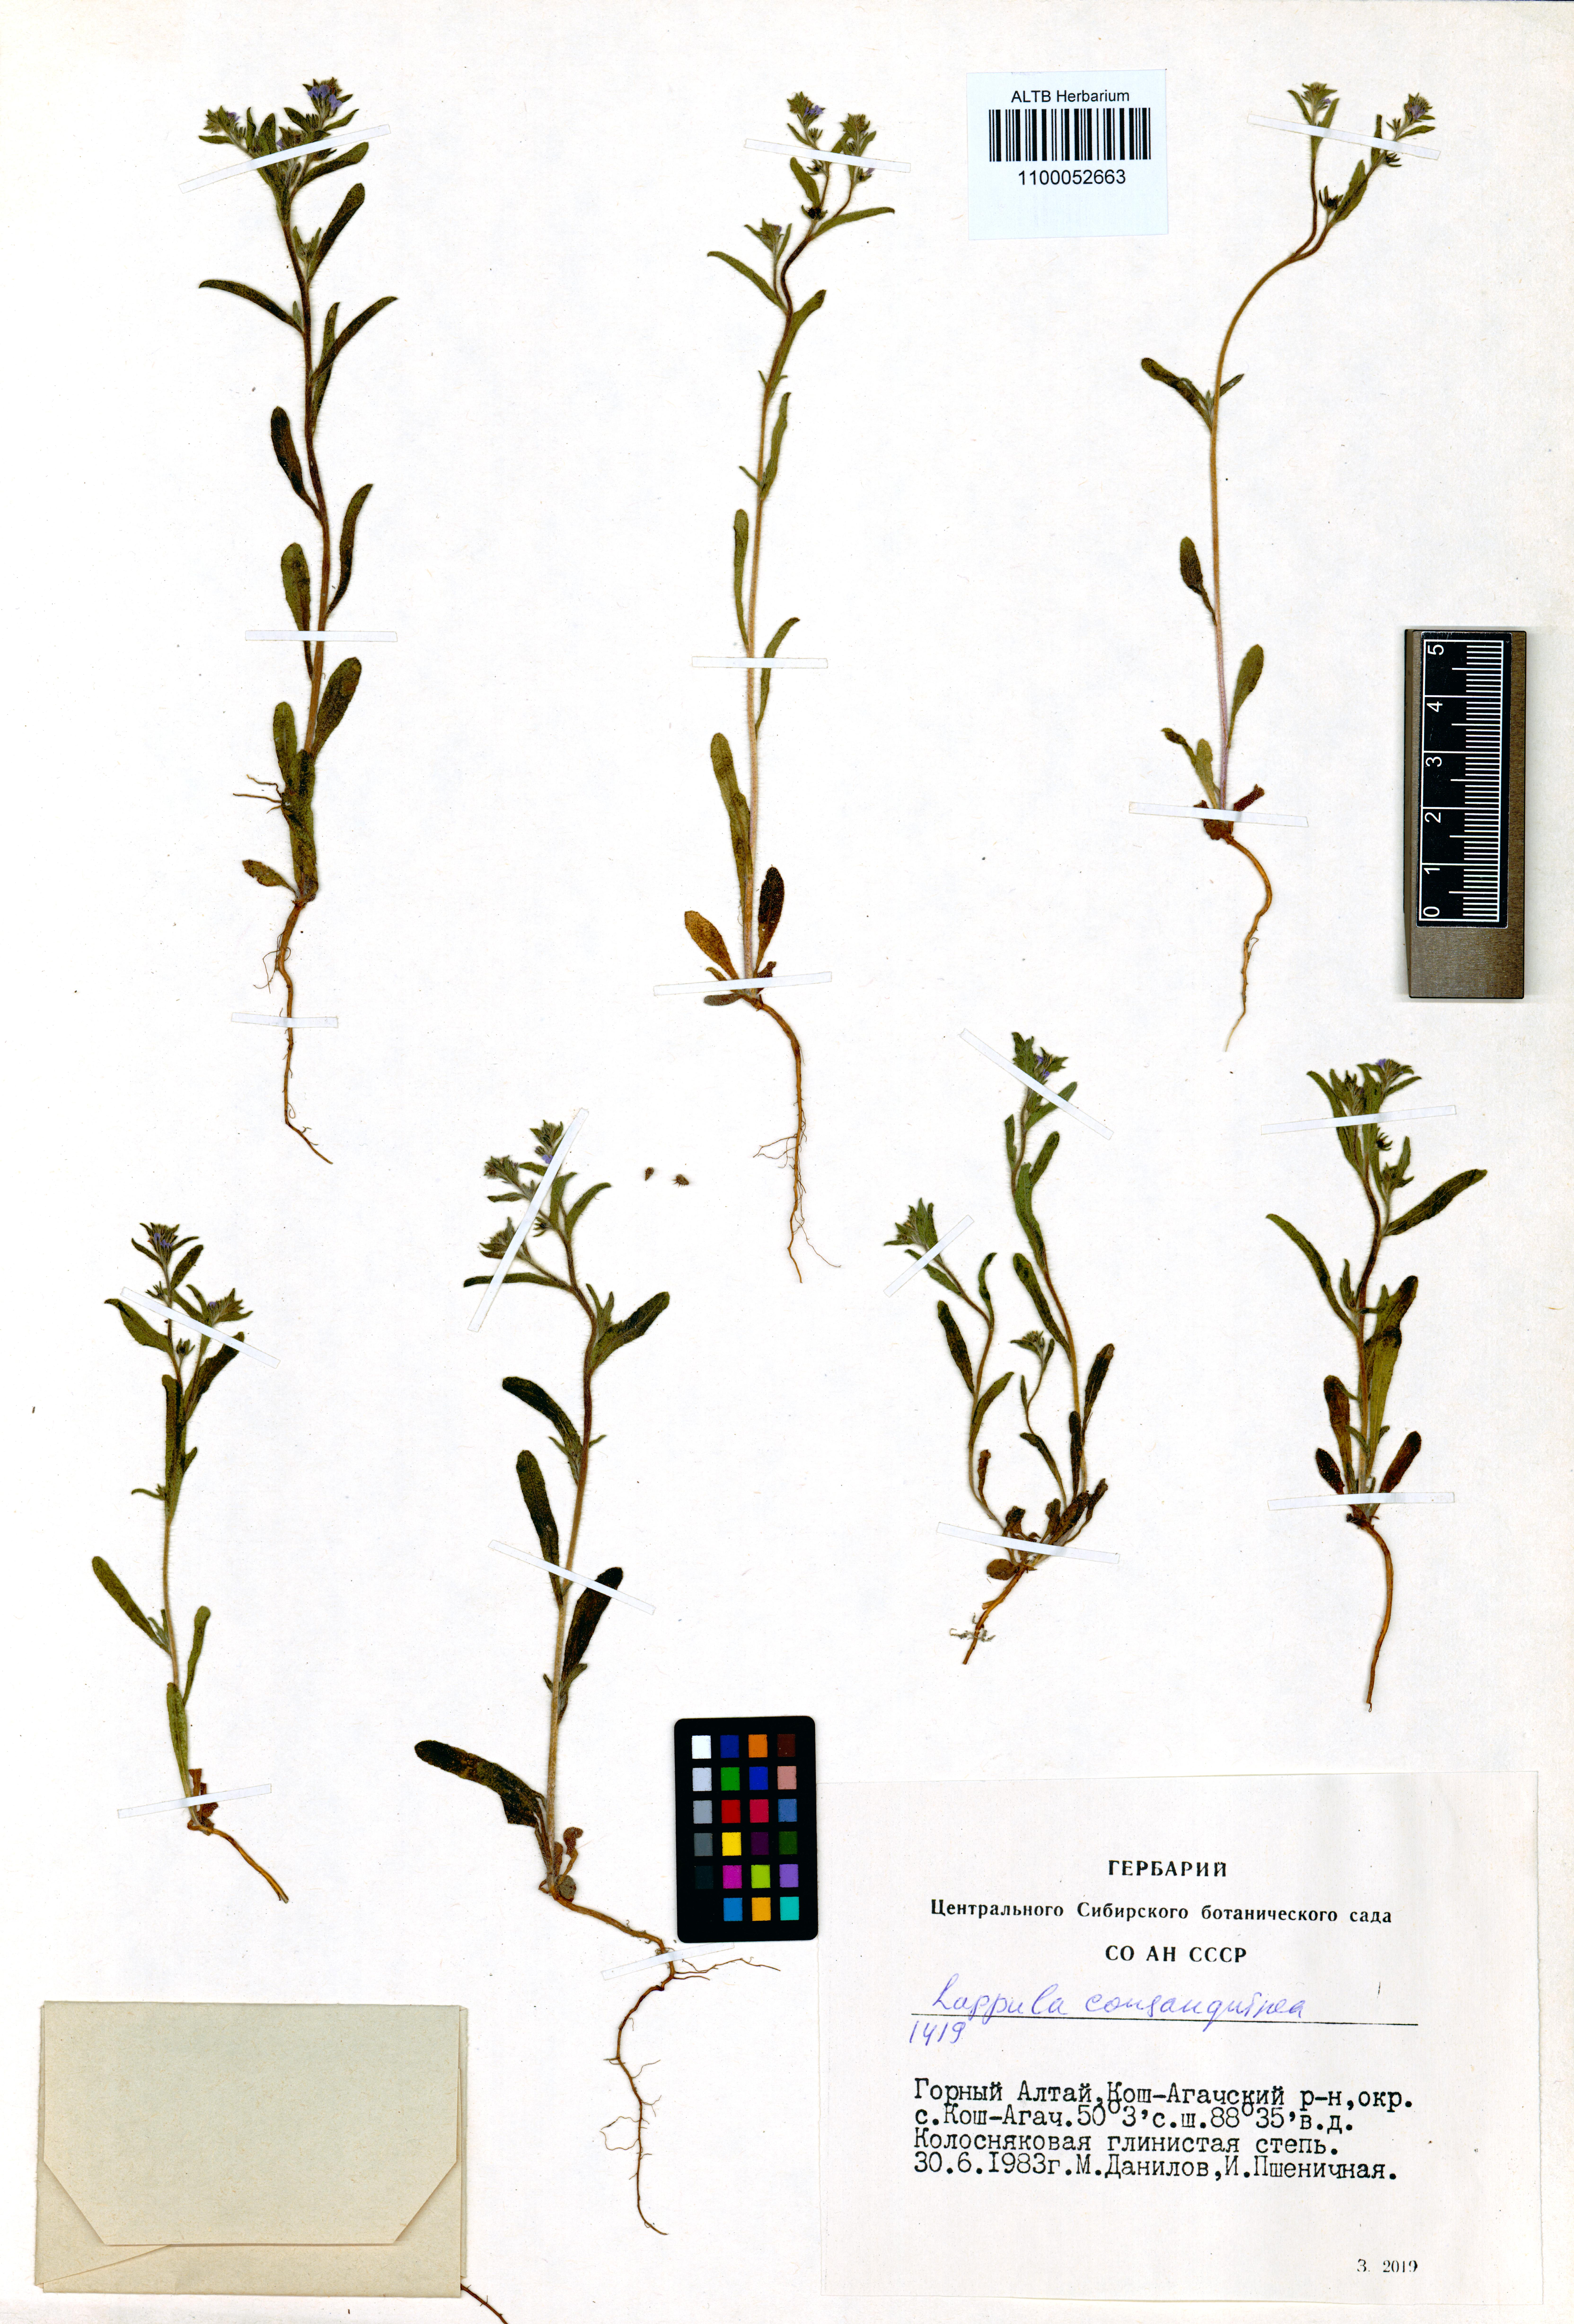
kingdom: Plantae
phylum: Tracheophyta
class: Magnoliopsida
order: Boraginales
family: Boraginaceae
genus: Lappula
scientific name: Lappula squarrosa
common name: European stickseed
